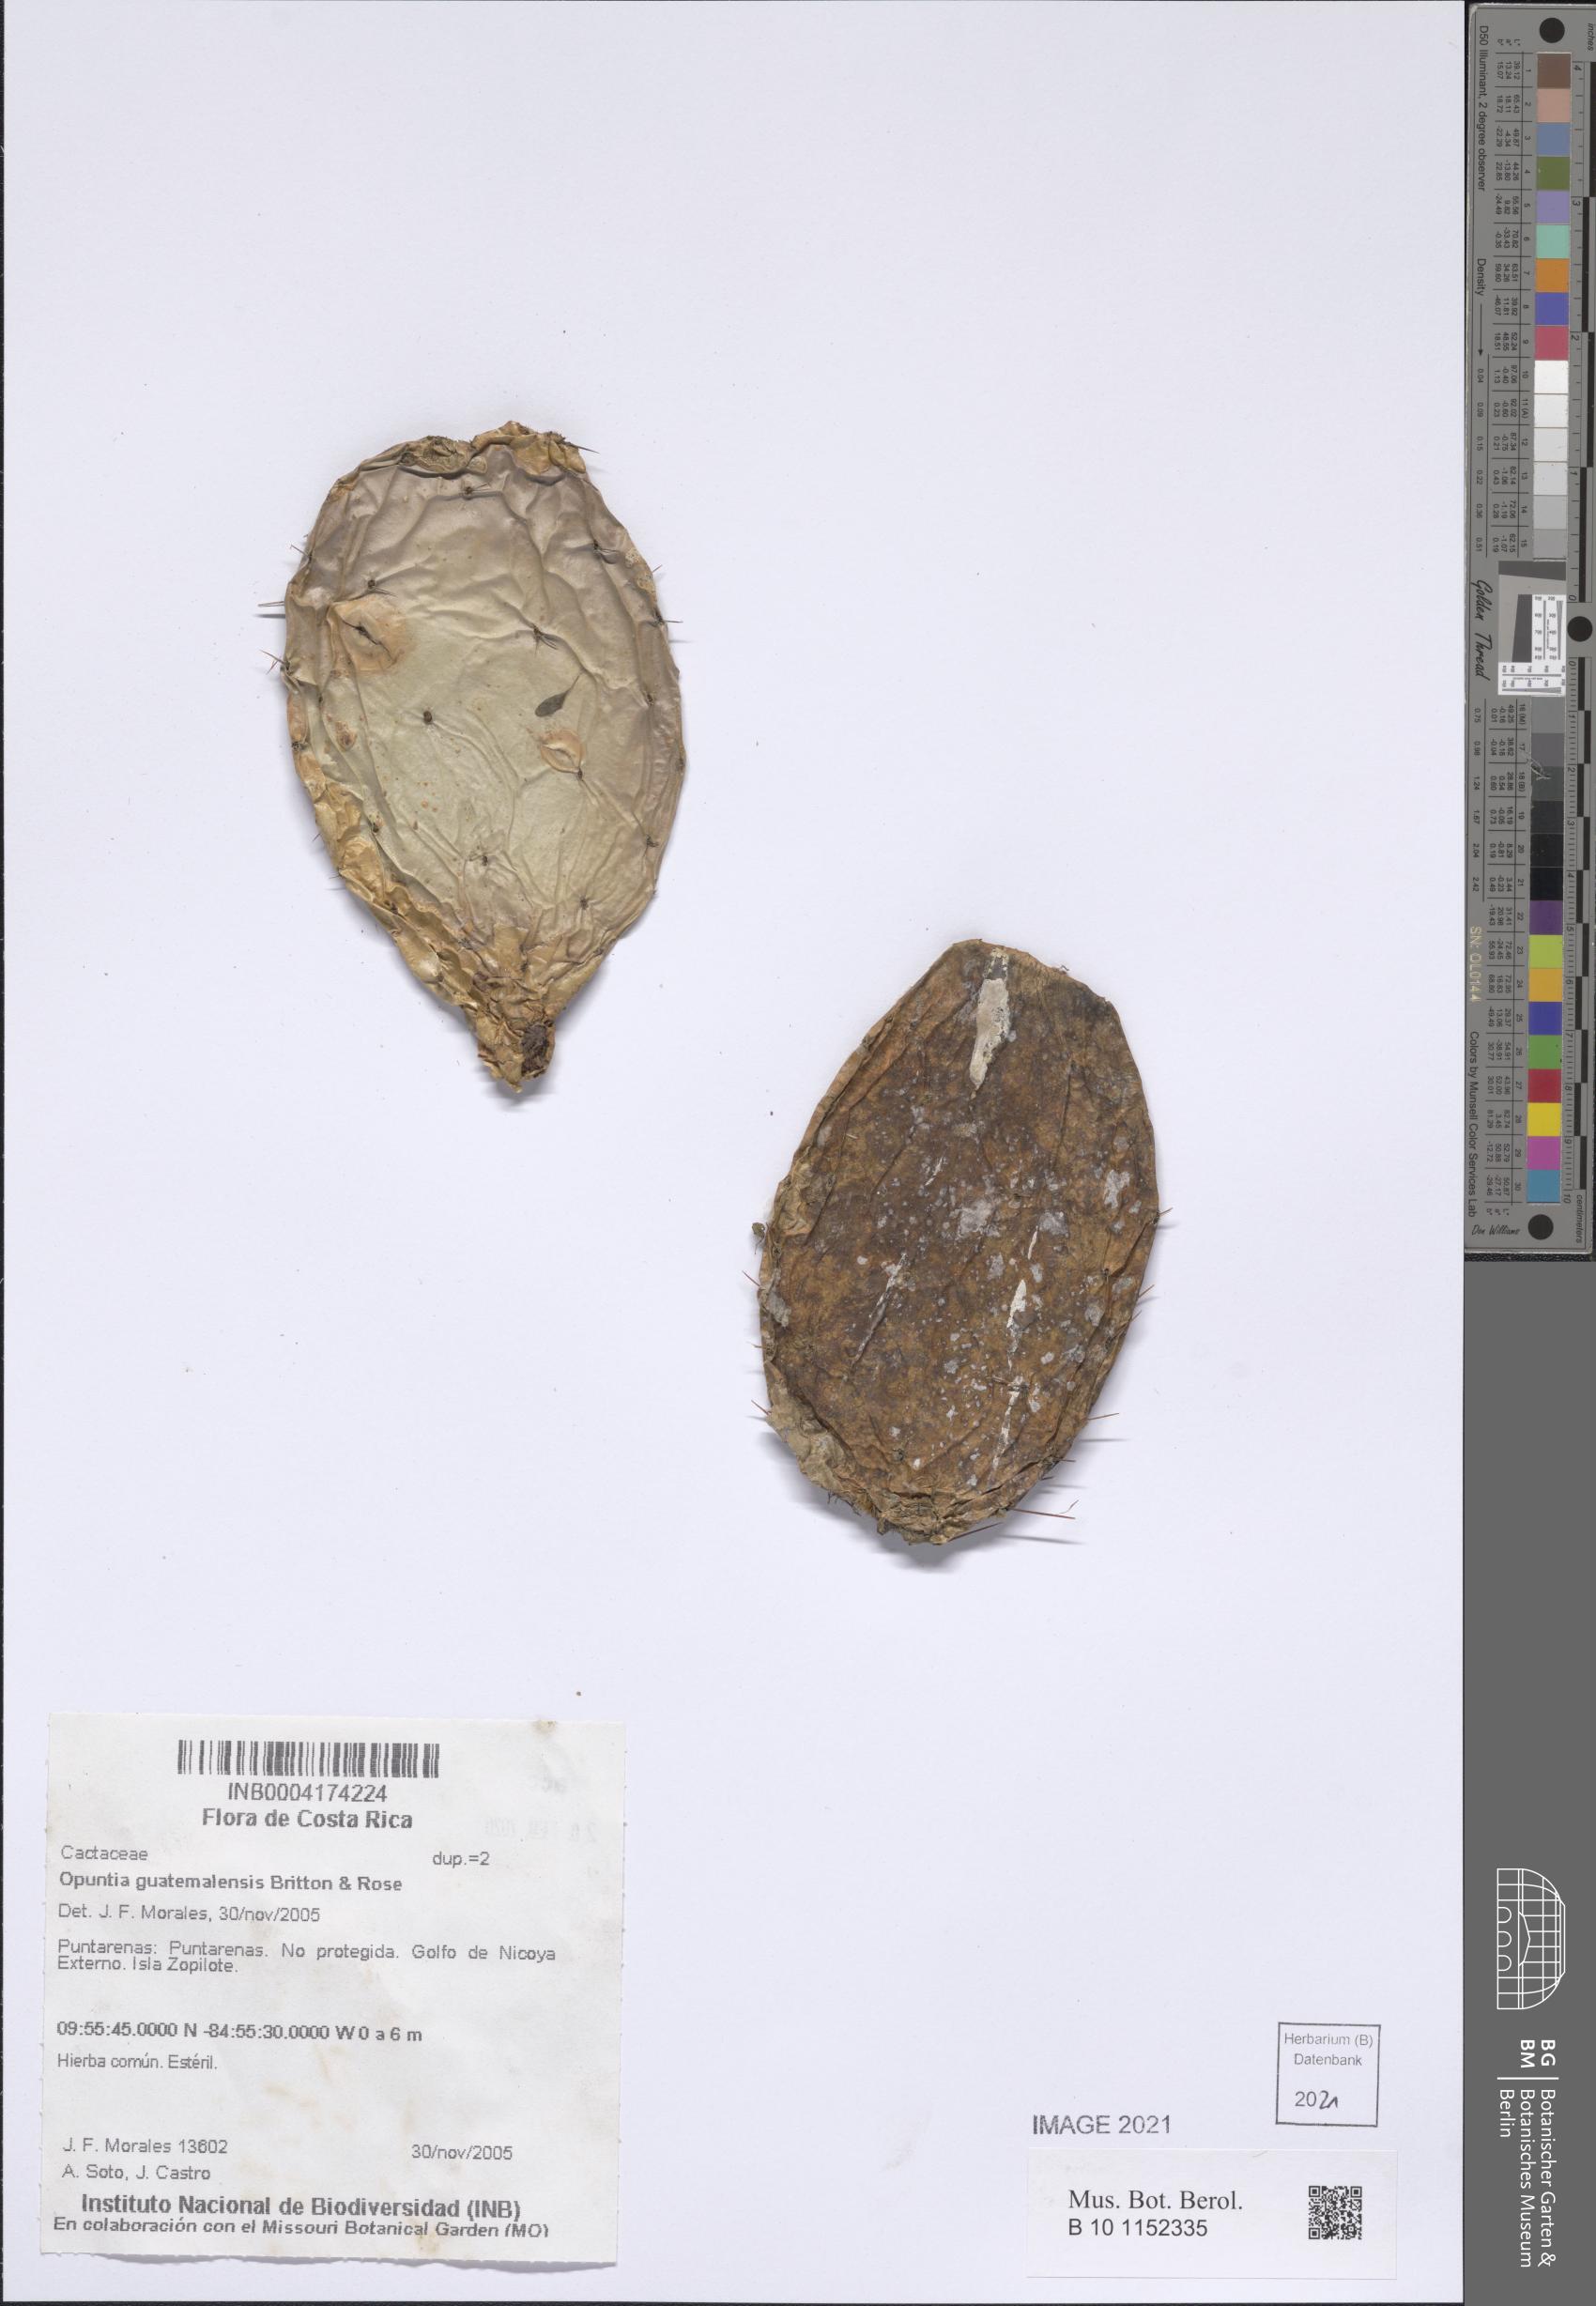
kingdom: Plantae
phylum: Tracheophyta
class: Magnoliopsida
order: Caryophyllales
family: Cactaceae
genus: Opuntia
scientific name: Opuntia auberi
